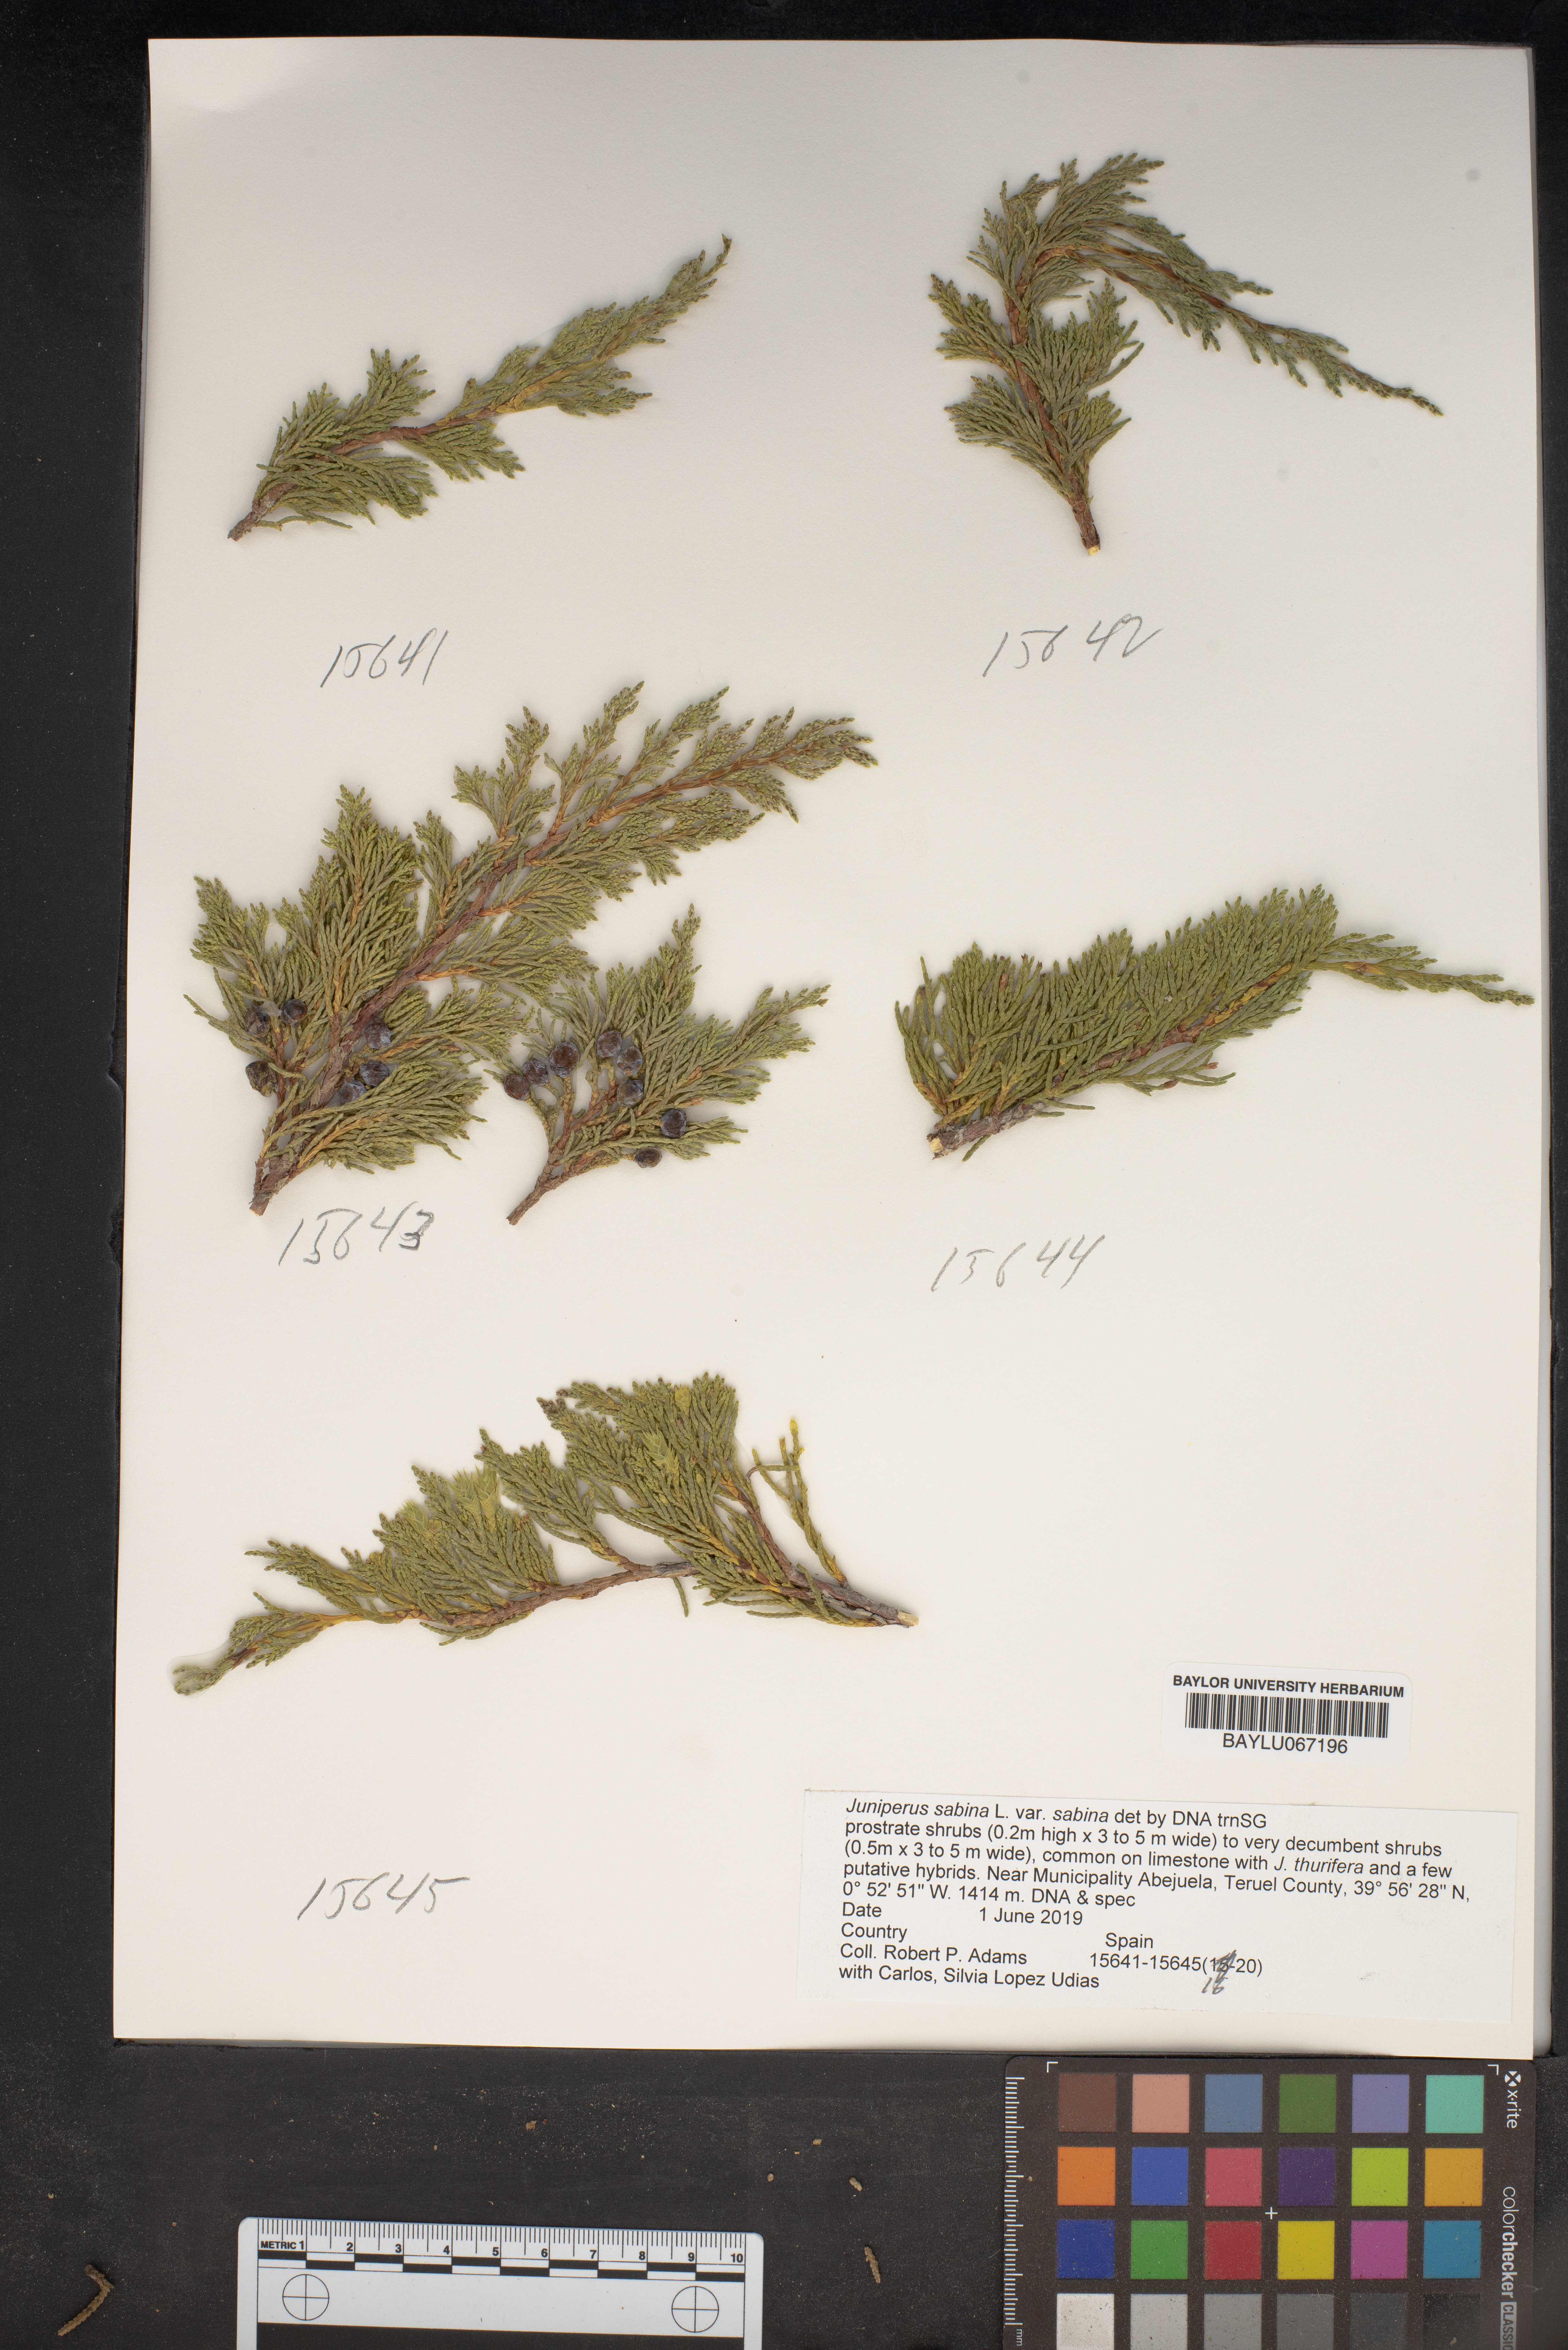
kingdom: Plantae
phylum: Tracheophyta
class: Pinopsida
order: Pinales
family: Cupressaceae
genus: Juniperus
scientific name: Juniperus sabina
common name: Savin
